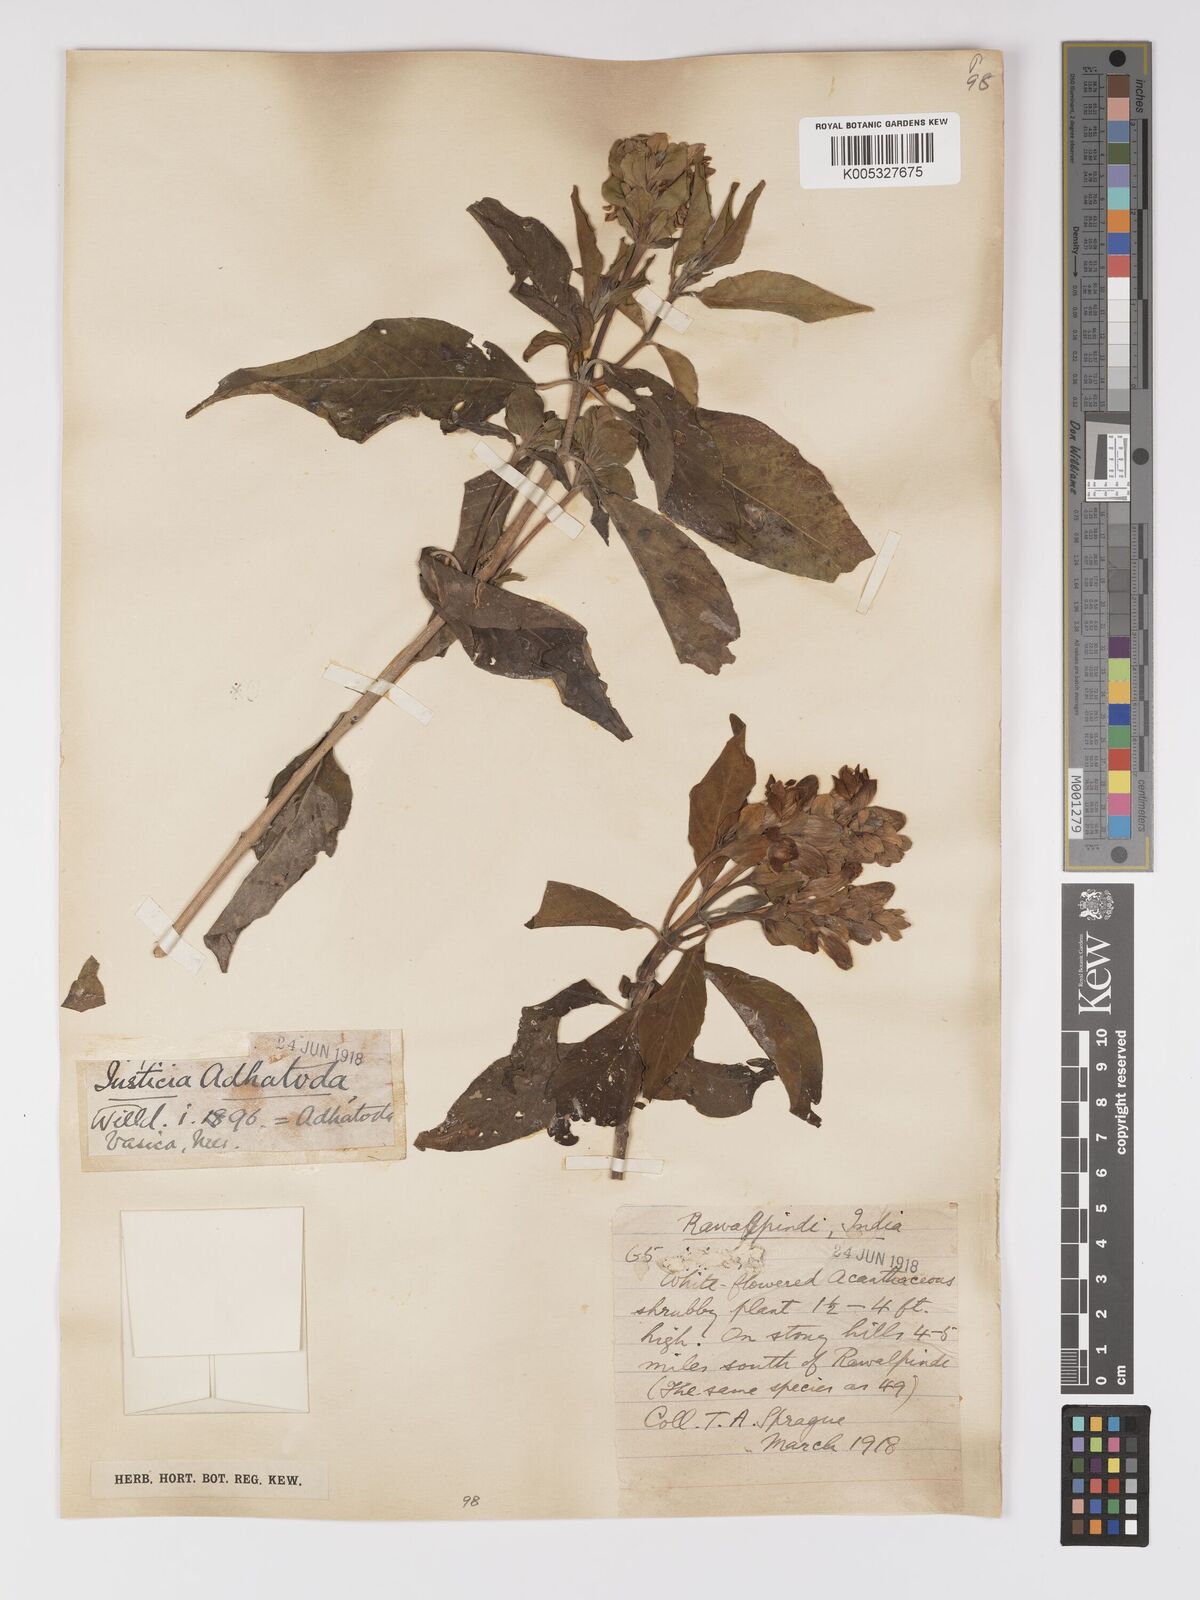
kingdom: Plantae
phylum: Tracheophyta
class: Magnoliopsida
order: Lamiales
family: Acanthaceae
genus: Ecbolium
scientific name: Ecbolium ligustrinum
